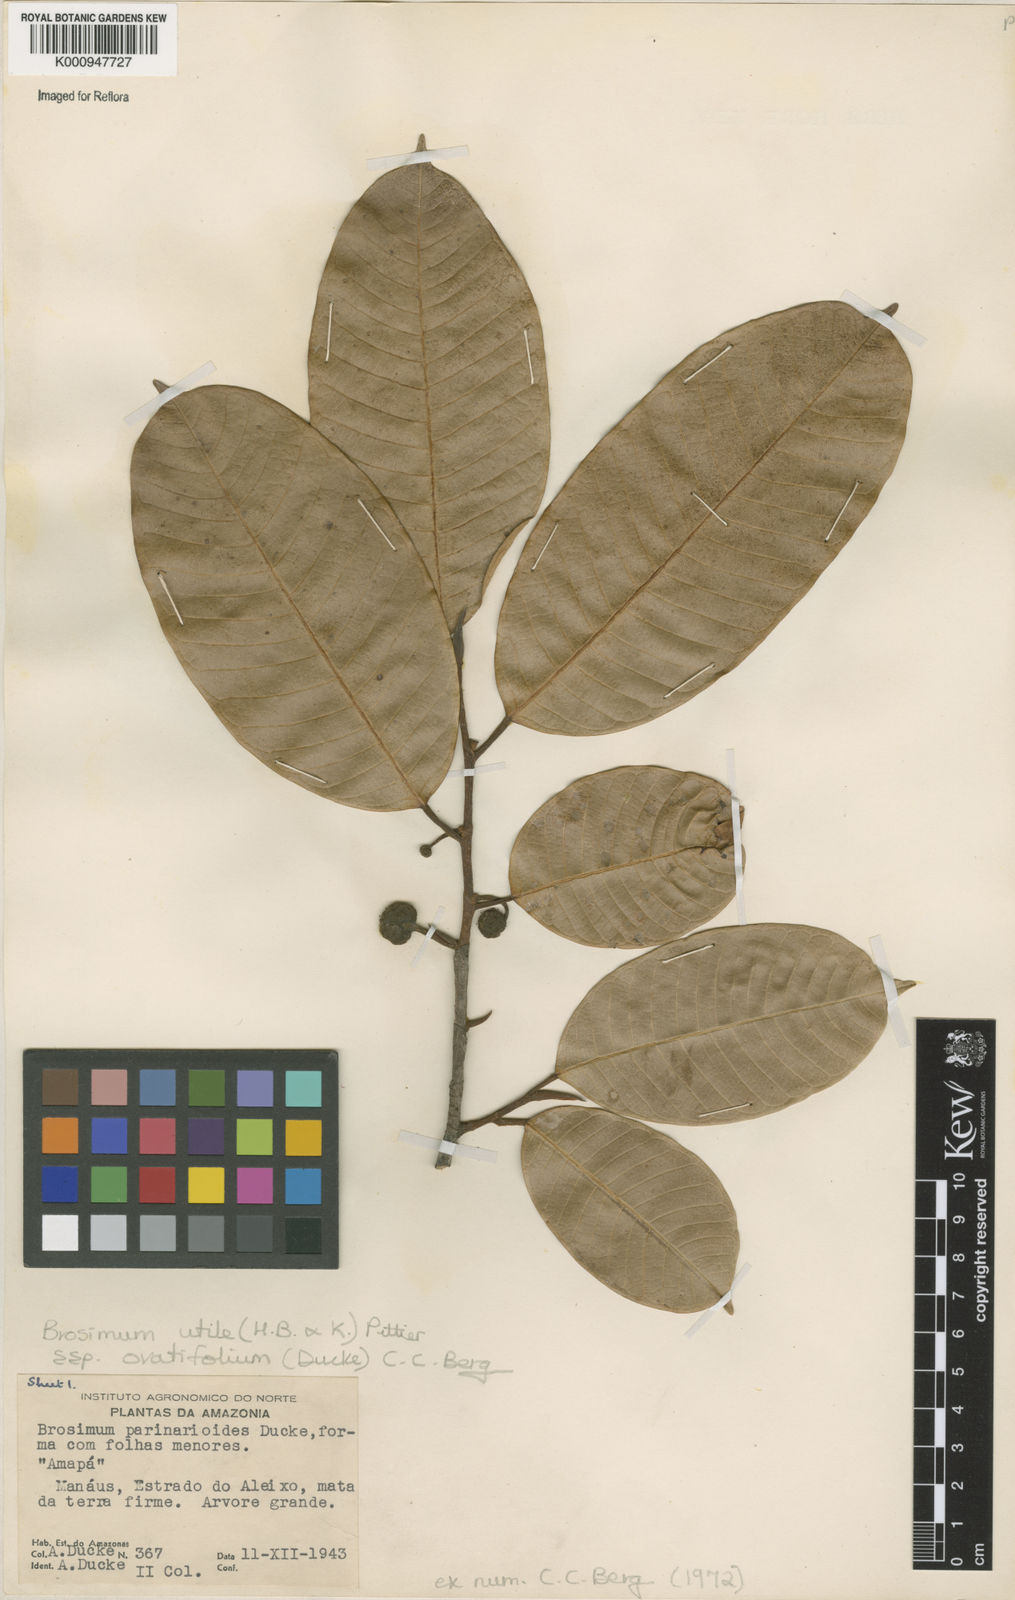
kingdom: Plantae
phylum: Tracheophyta
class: Magnoliopsida
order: Rosales
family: Moraceae
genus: Brosimum
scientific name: Brosimum utile
